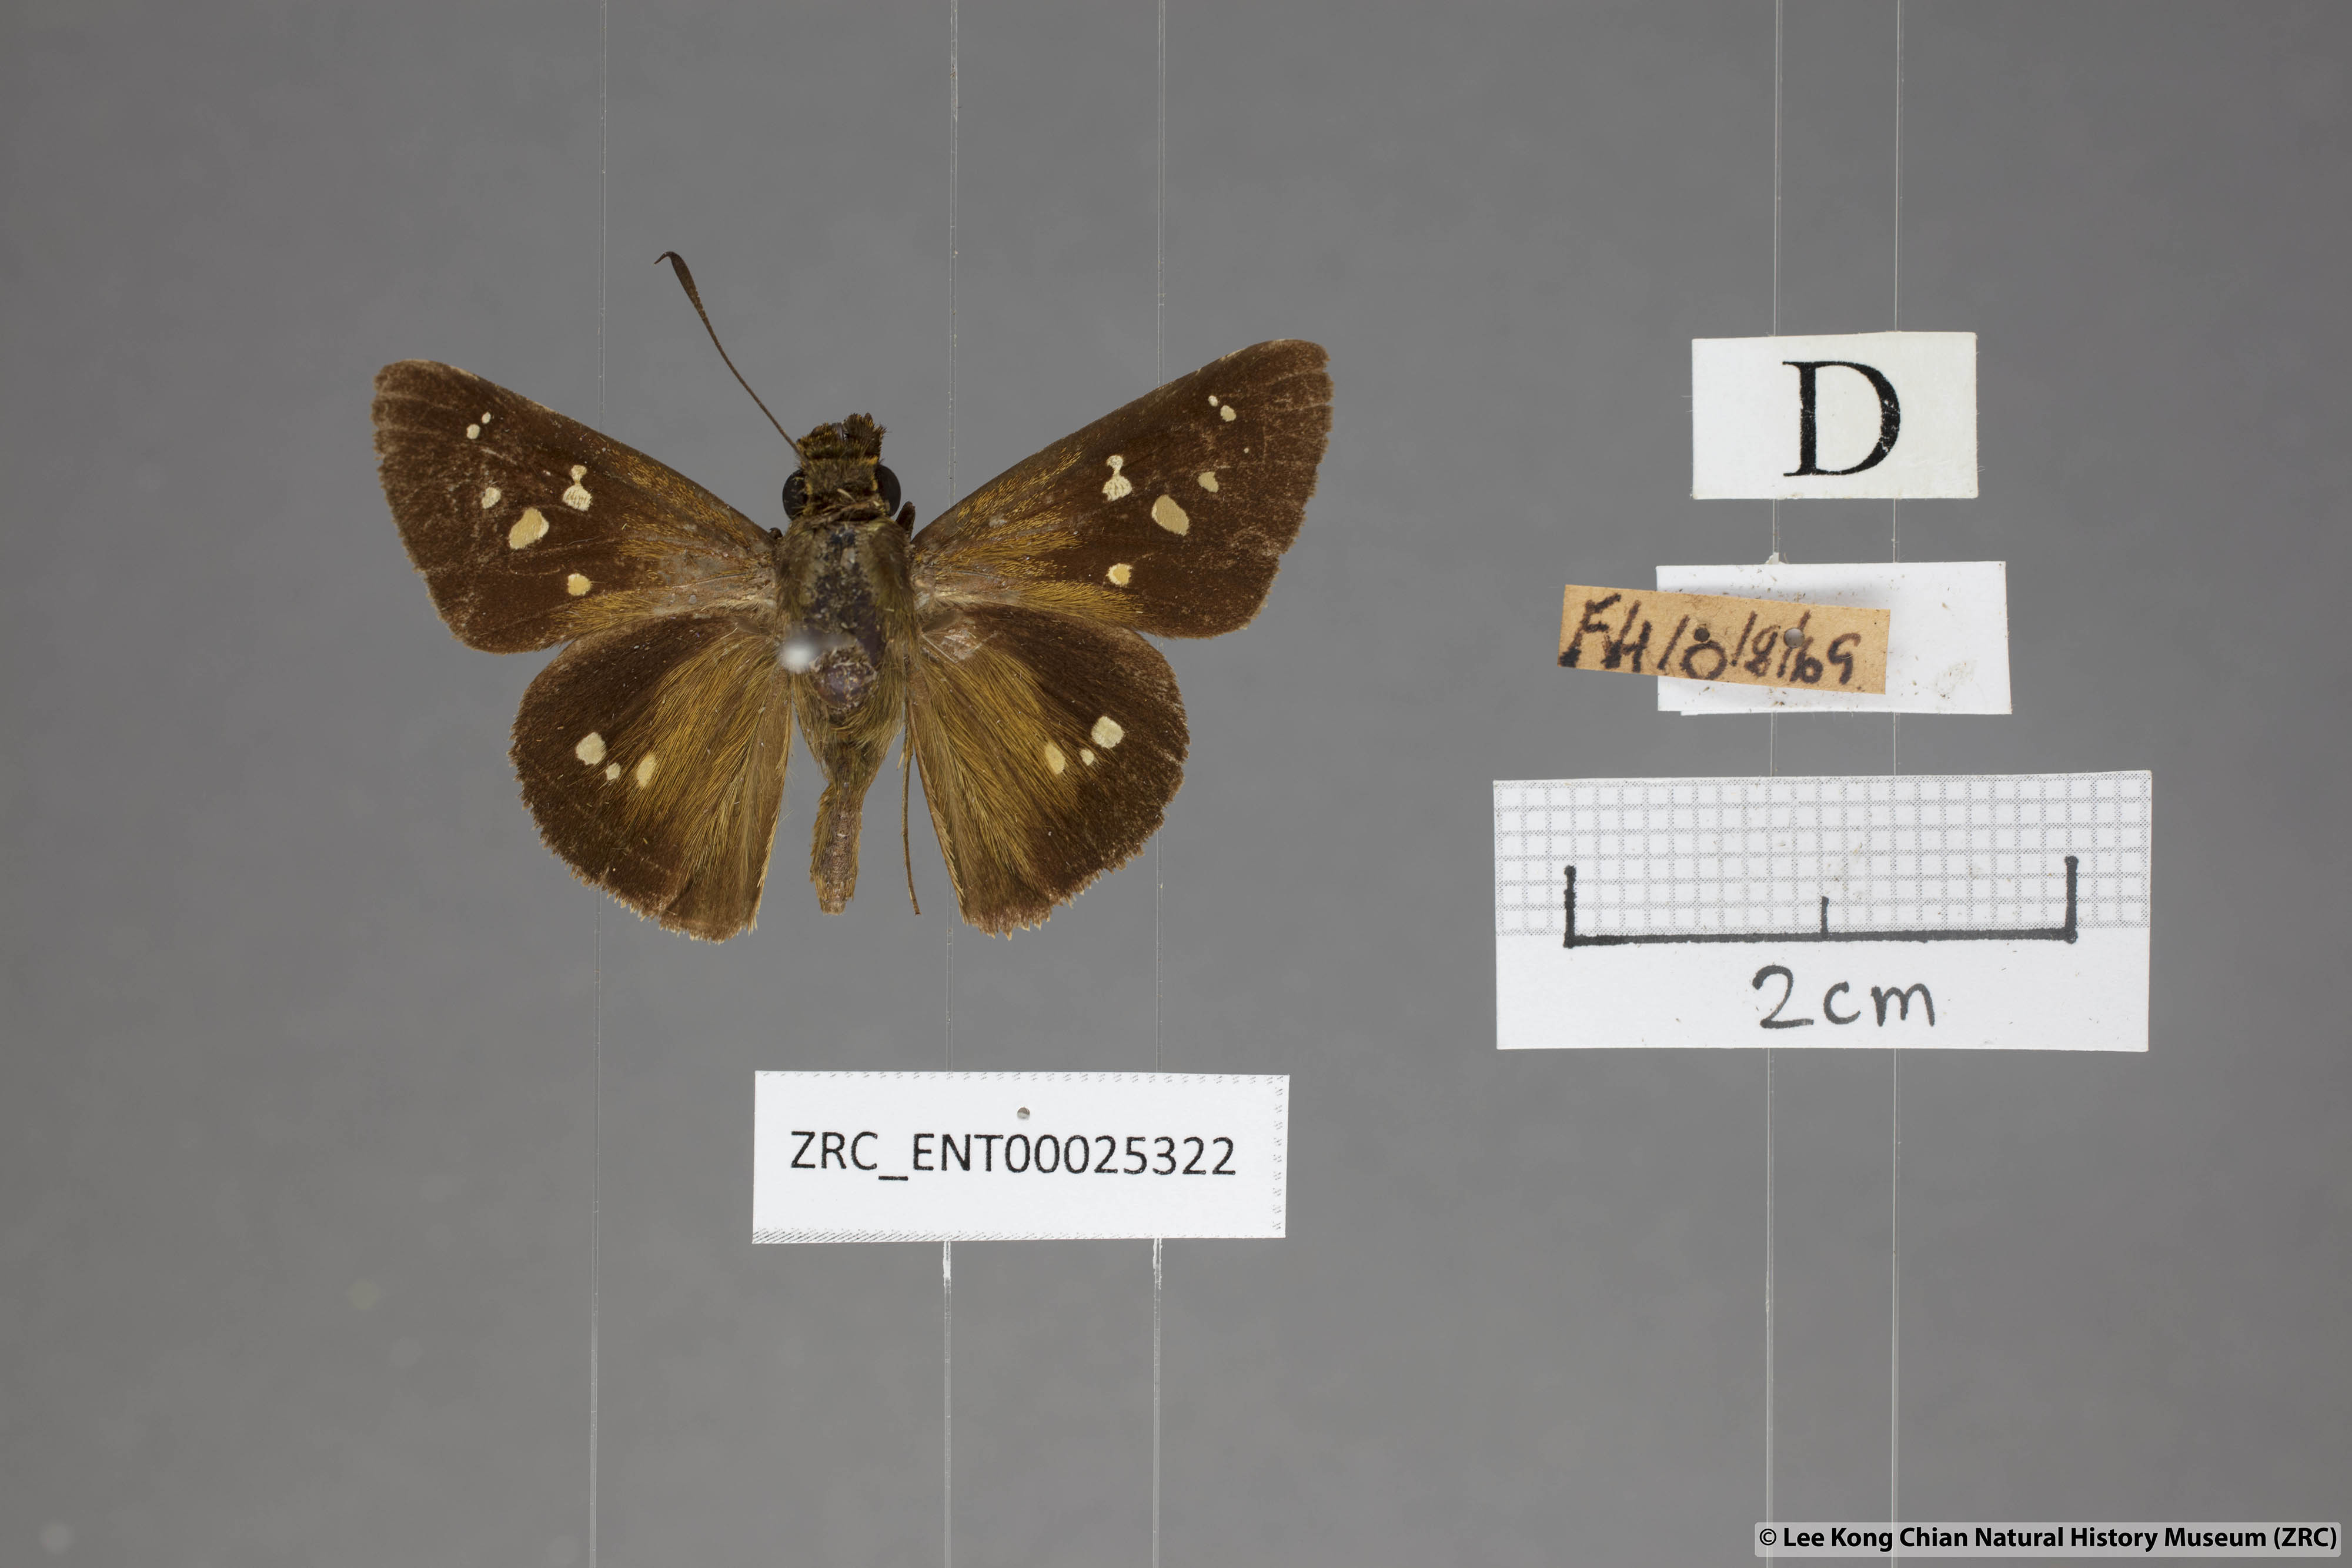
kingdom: Animalia
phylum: Arthropoda
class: Insecta
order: Lepidoptera
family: Hesperiidae
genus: Polytremis
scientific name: Polytremis eltola
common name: Yellow-spot swift
